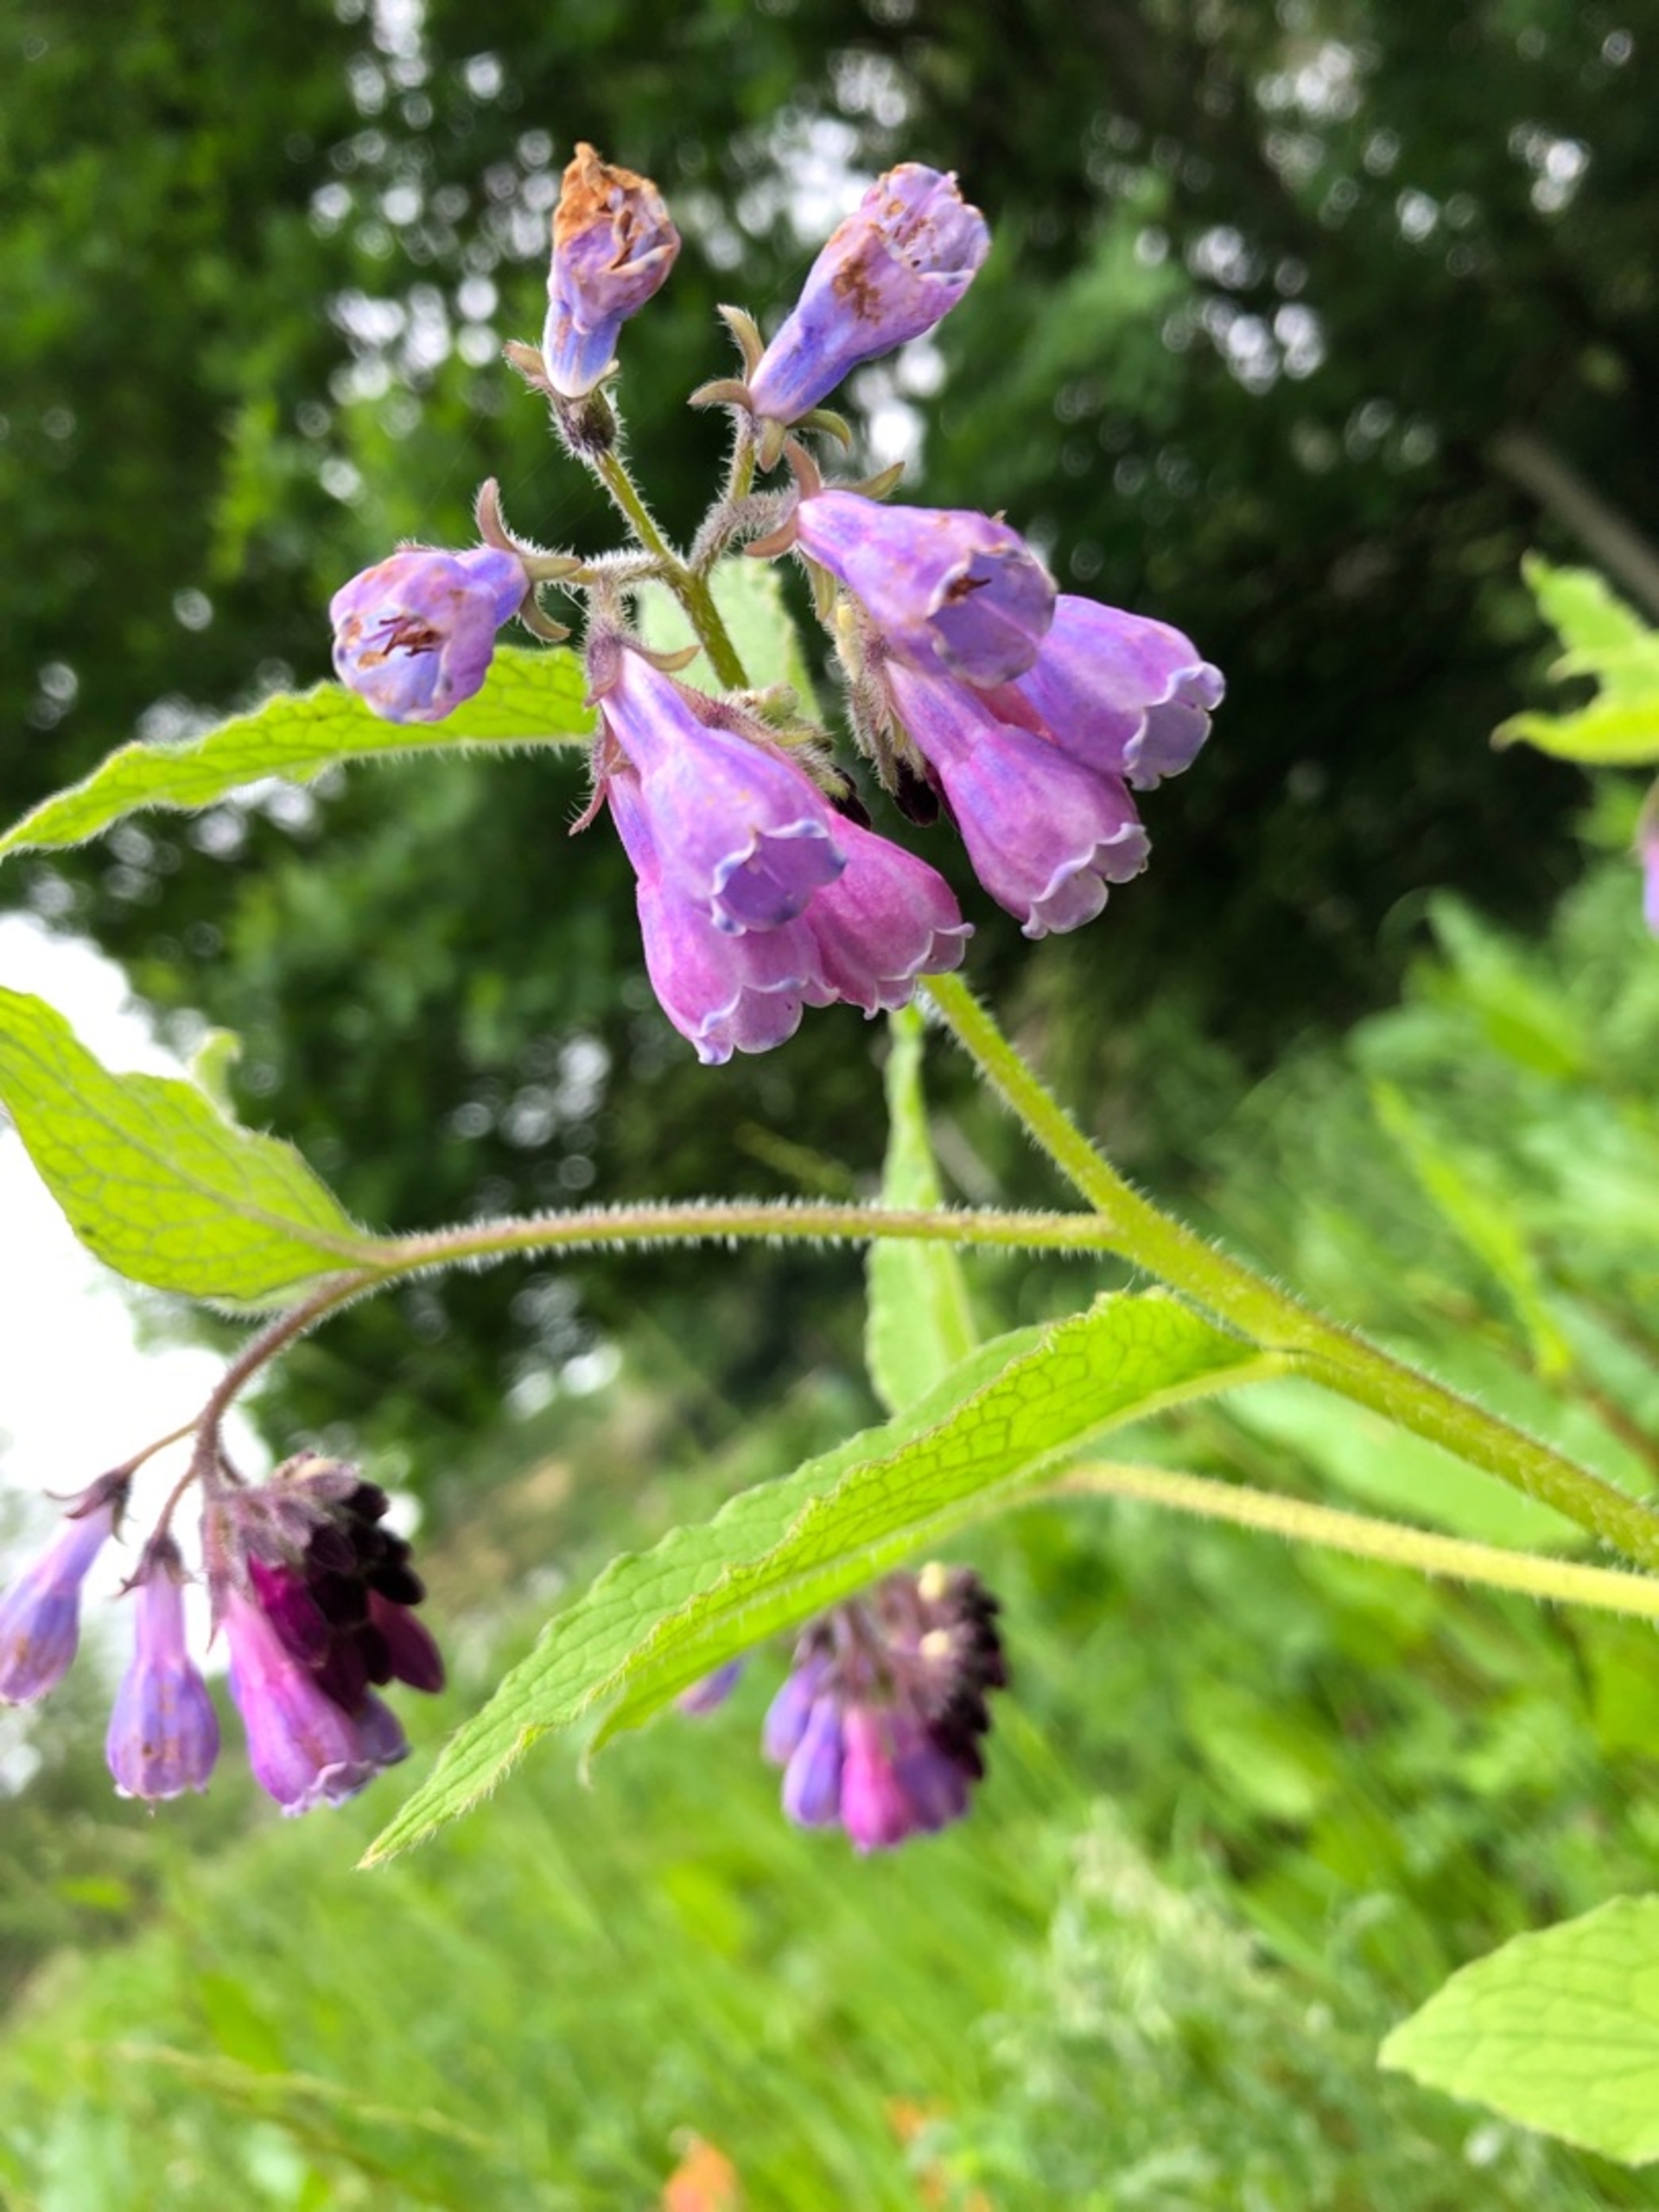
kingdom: Plantae
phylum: Tracheophyta
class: Magnoliopsida
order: Boraginales
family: Boraginaceae
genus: Symphytum
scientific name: Symphytum uplandicum
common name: Foder-kulsukker
